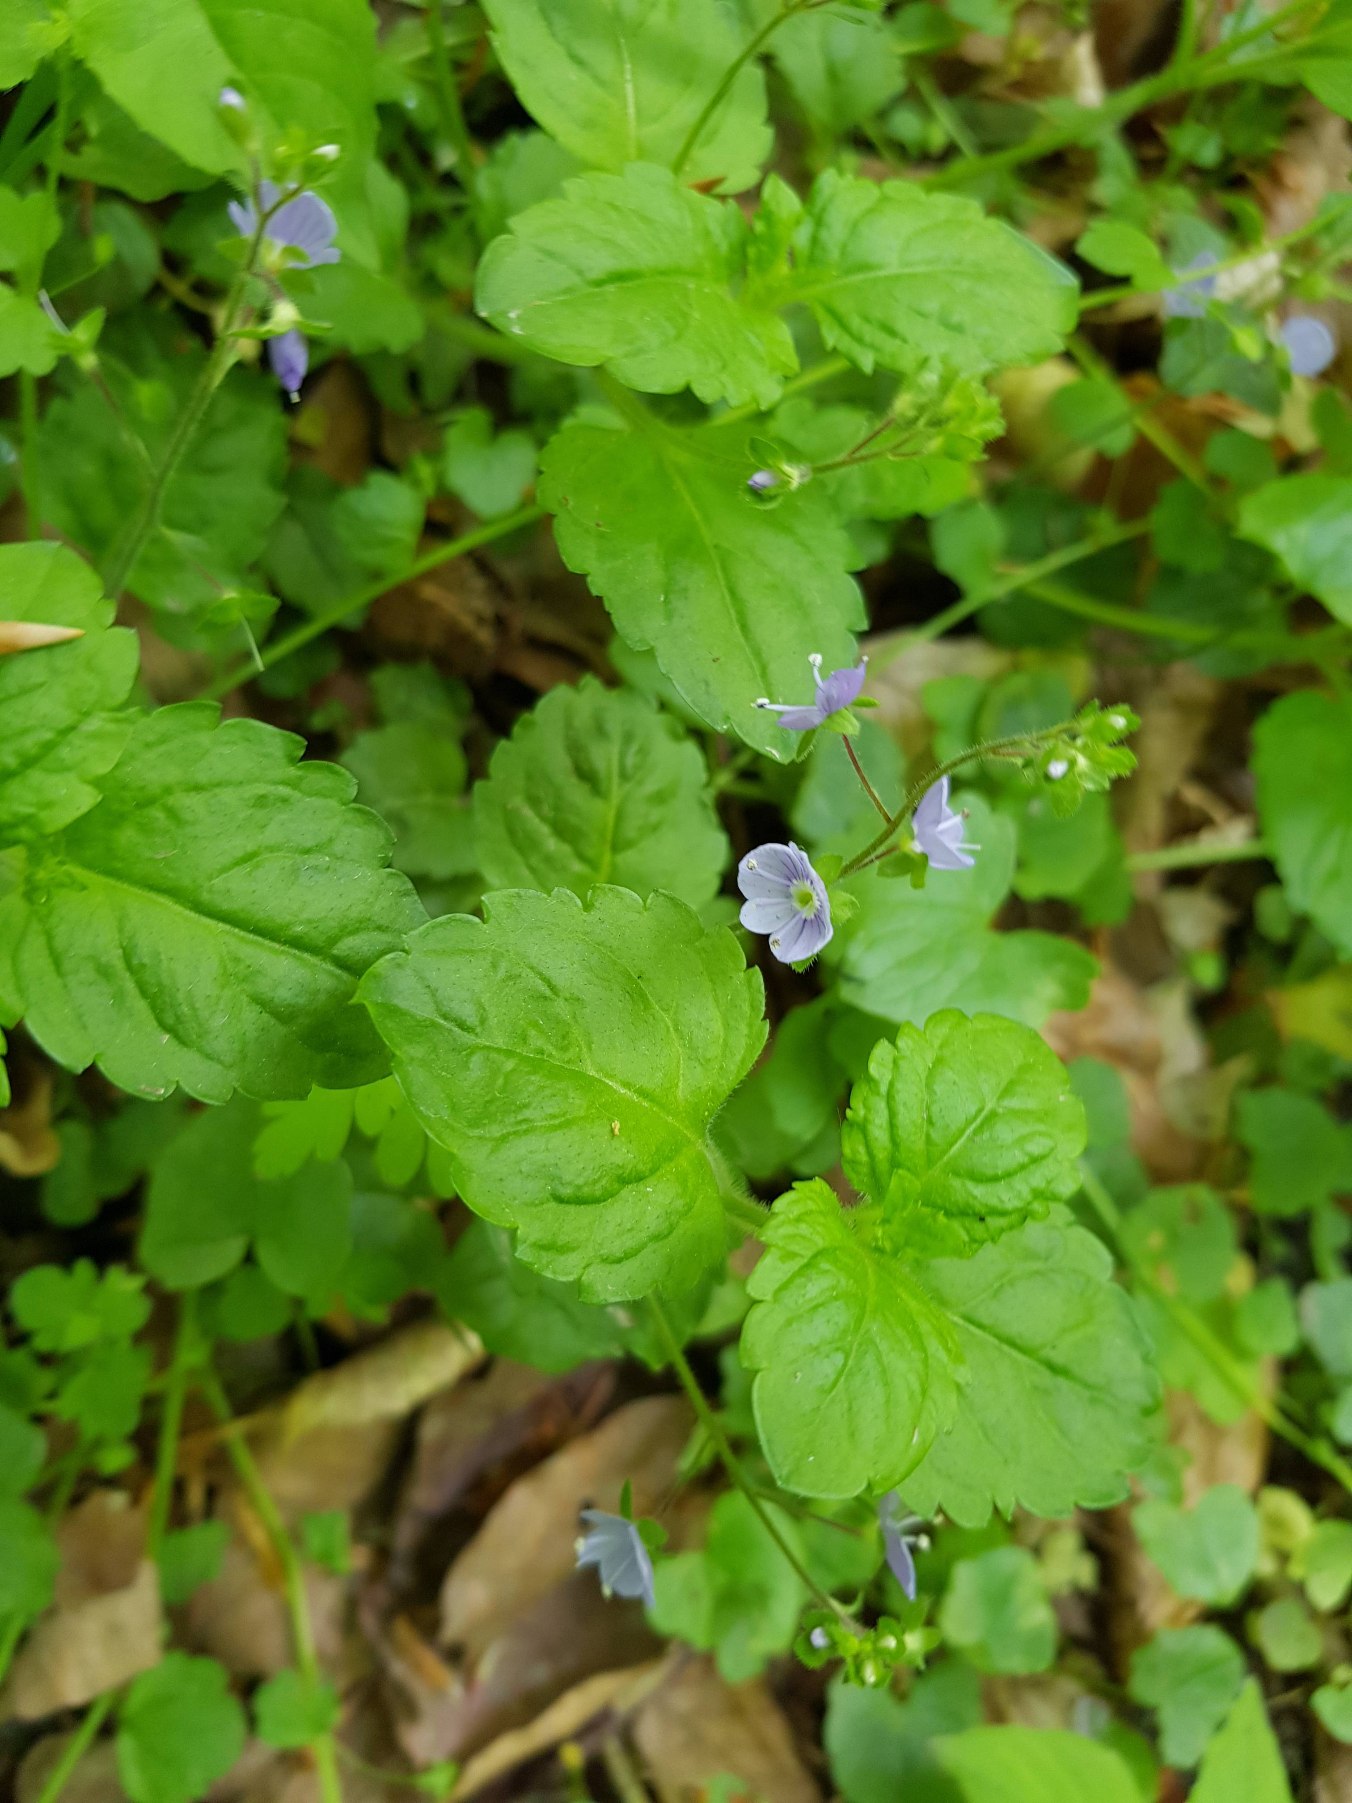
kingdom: Plantae
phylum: Tracheophyta
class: Magnoliopsida
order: Lamiales
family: Plantaginaceae
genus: Veronica
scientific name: Veronica montana
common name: Bjerg-ærenpris
